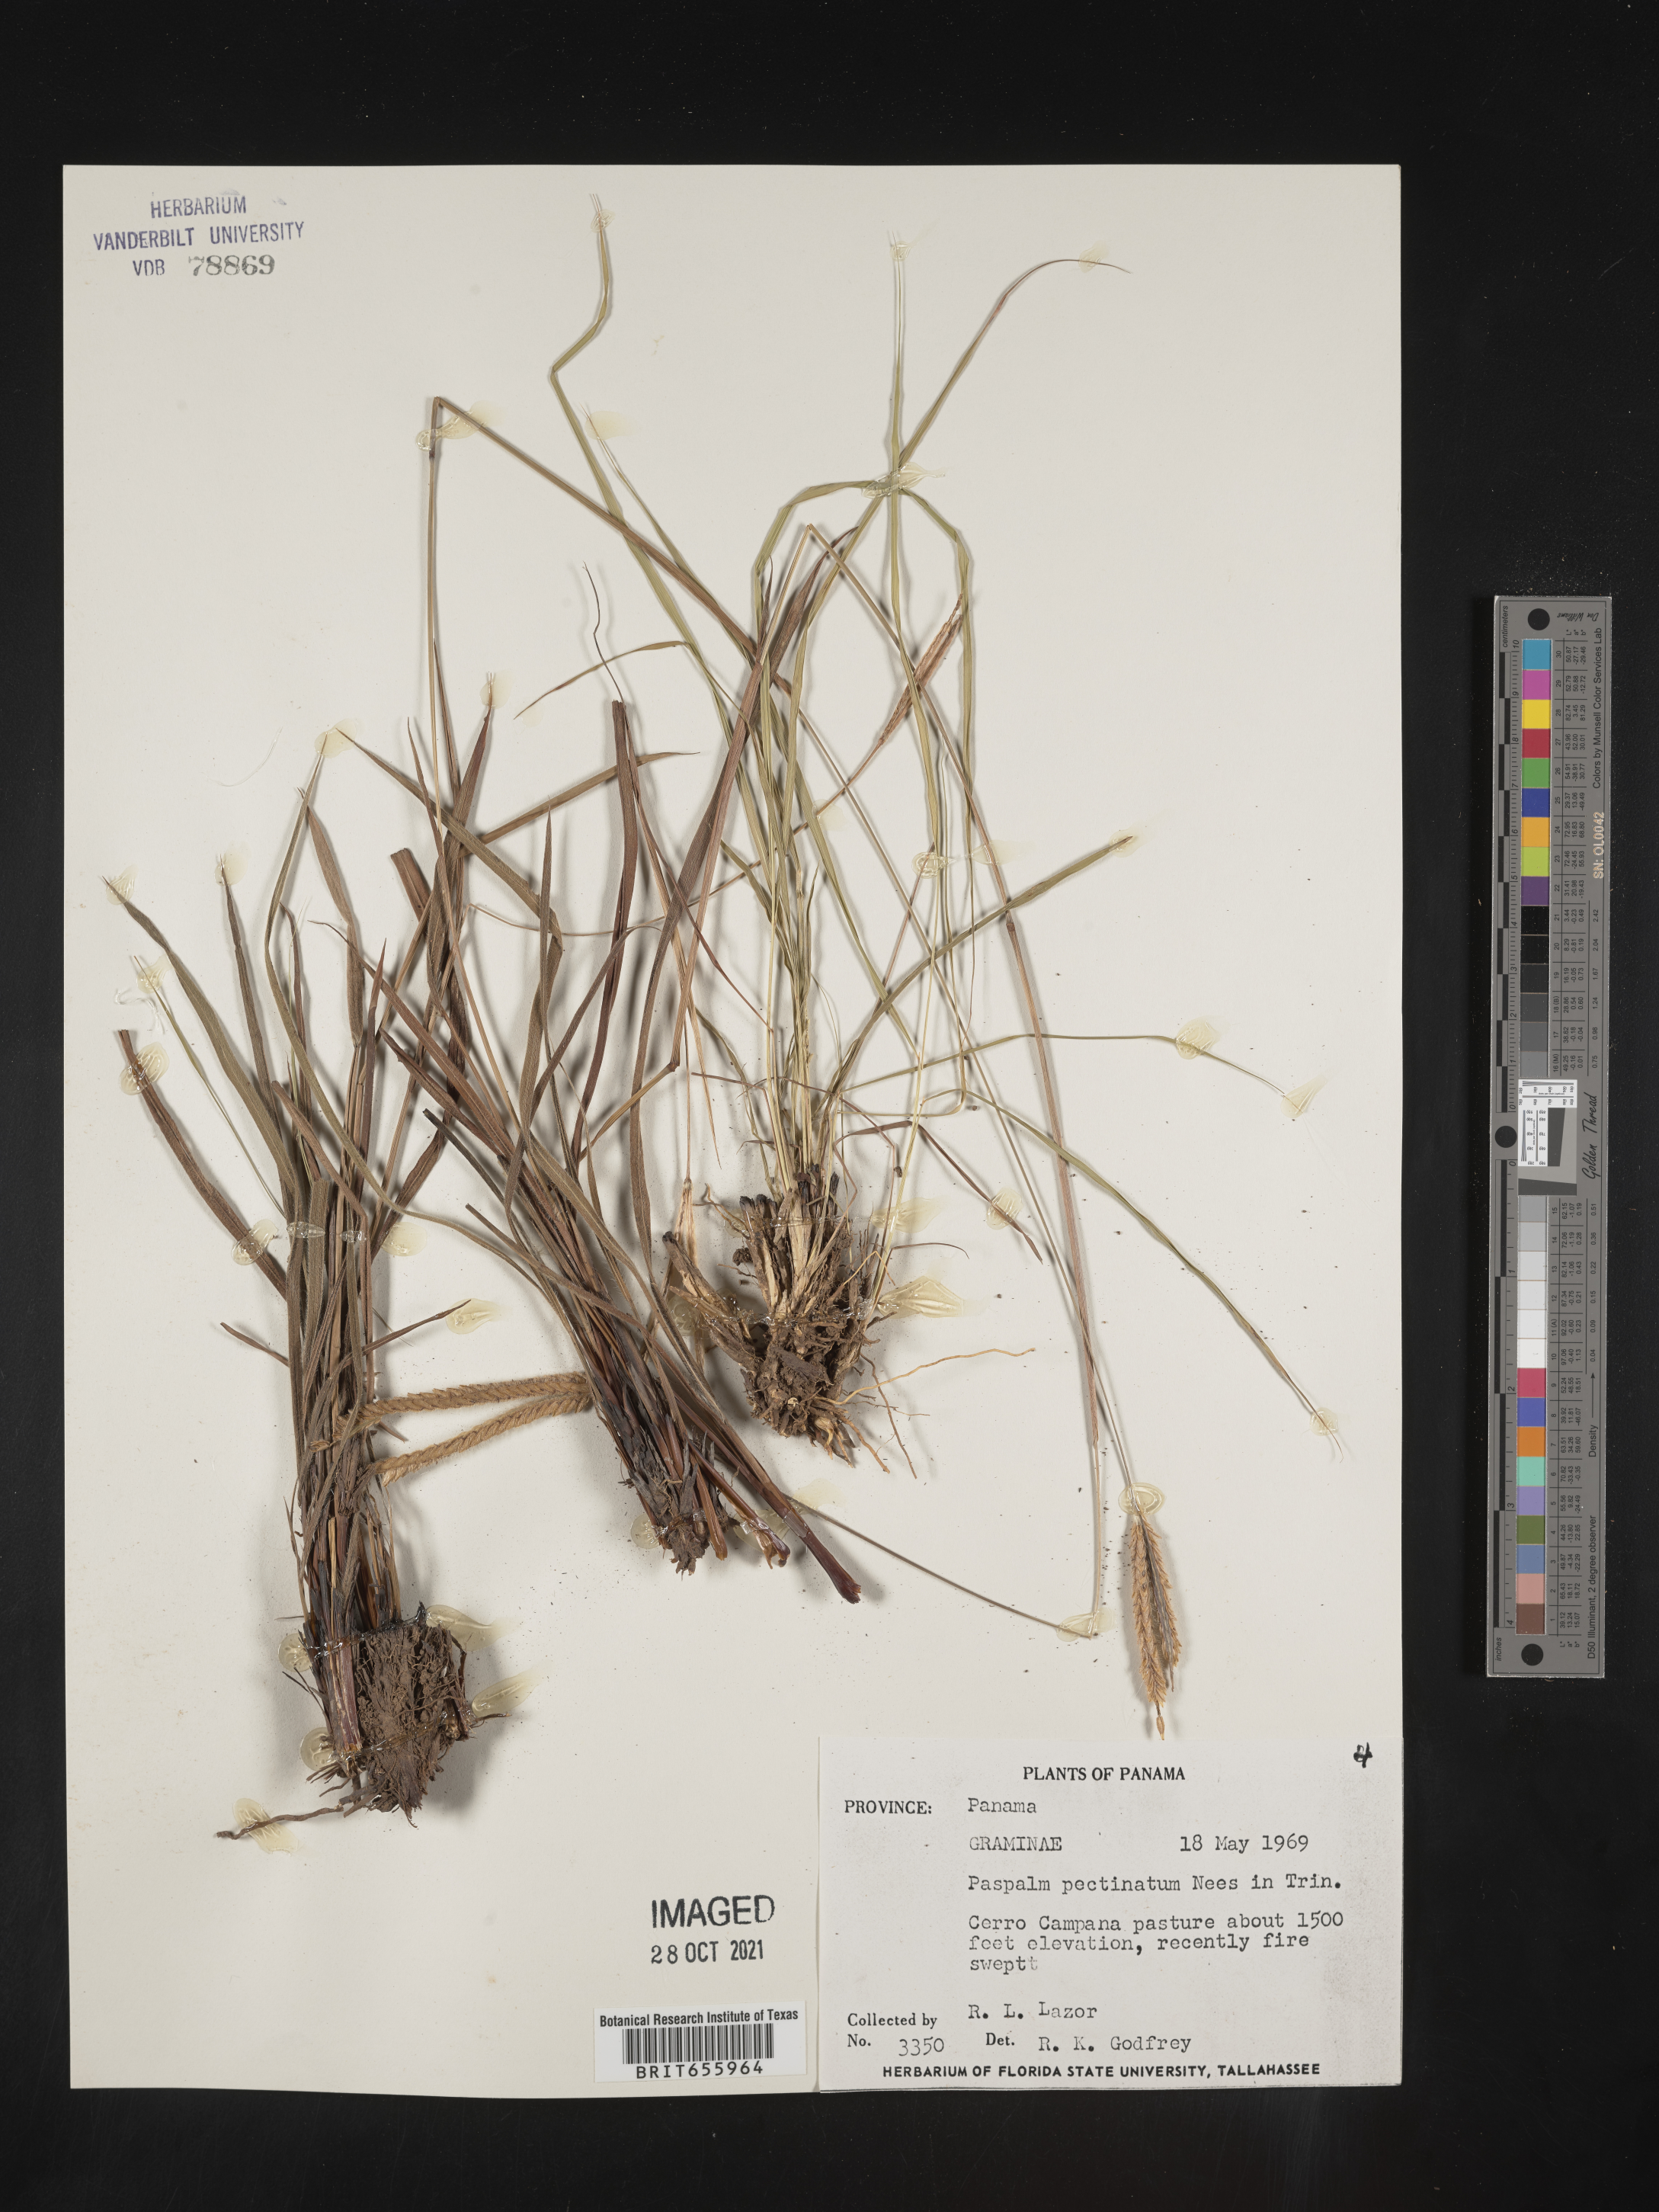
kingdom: Plantae
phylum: Tracheophyta
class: Liliopsida
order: Poales
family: Poaceae
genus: Paspalum
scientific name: Paspalum
